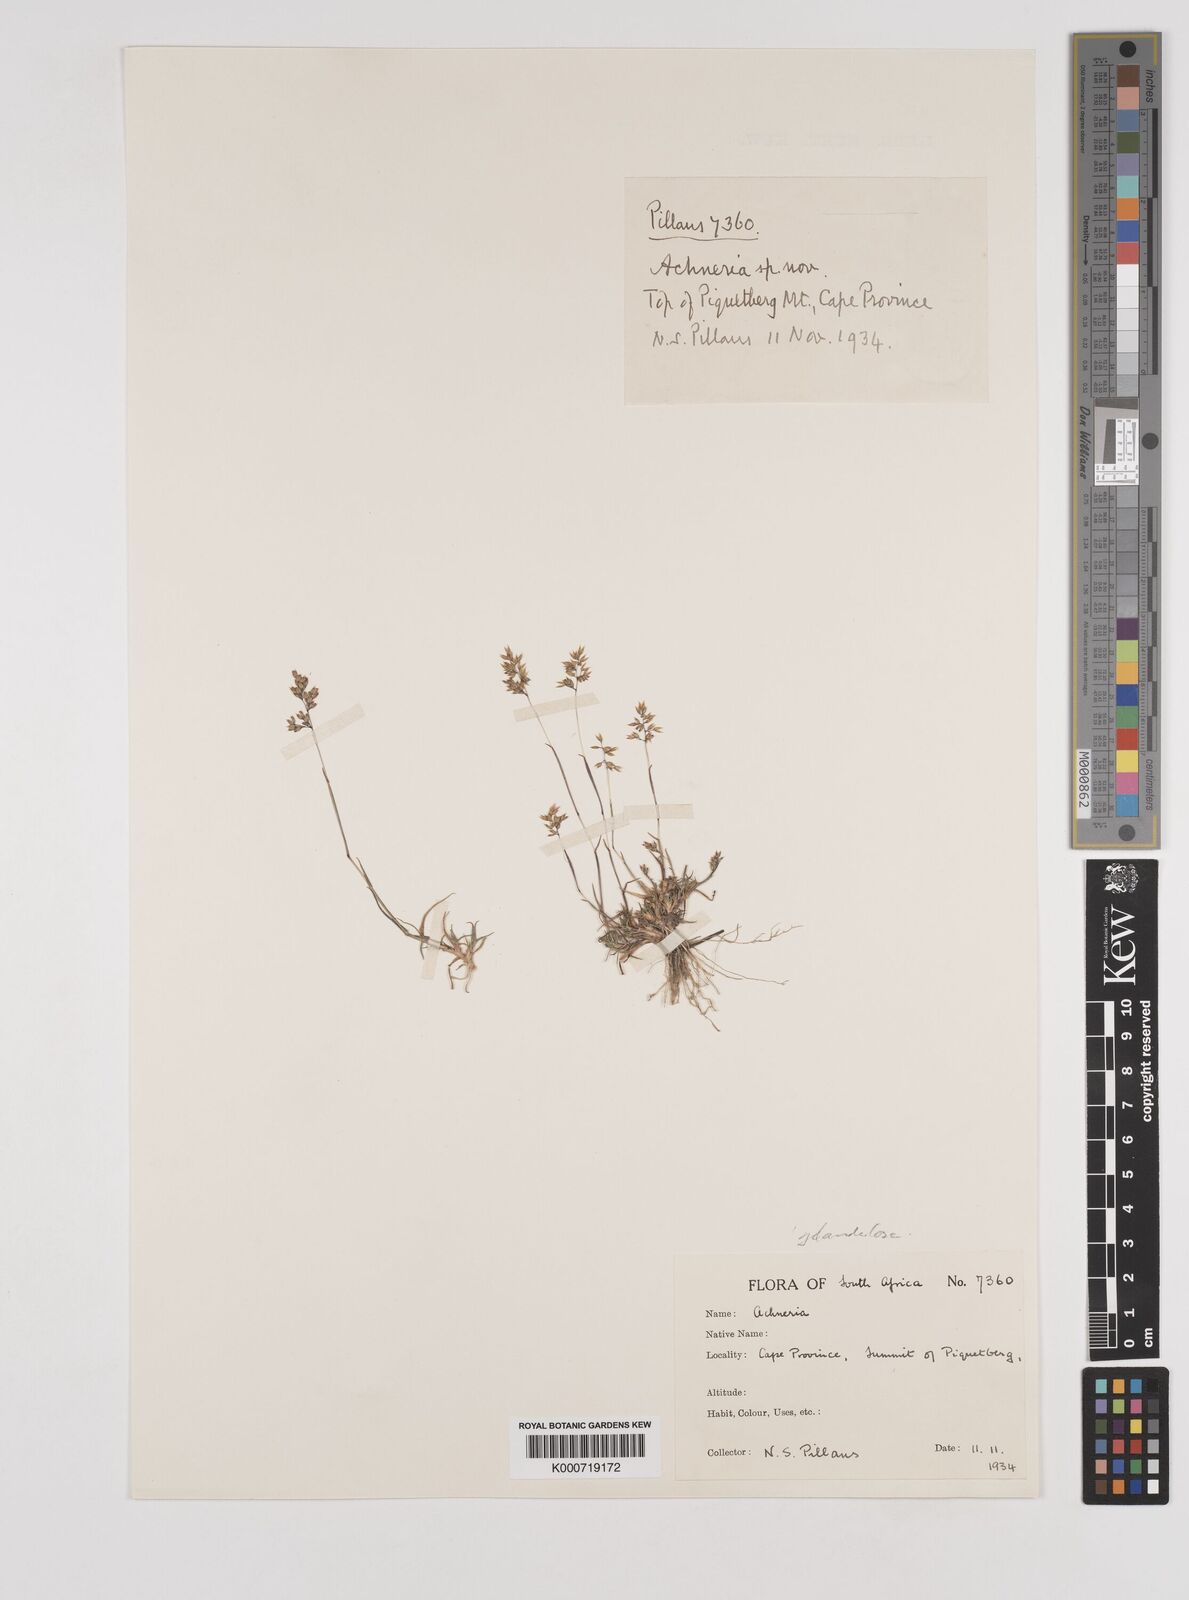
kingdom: Plantae
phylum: Tracheophyta
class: Liliopsida
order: Poales
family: Poaceae
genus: Pentameris
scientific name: Pentameris reflexa
